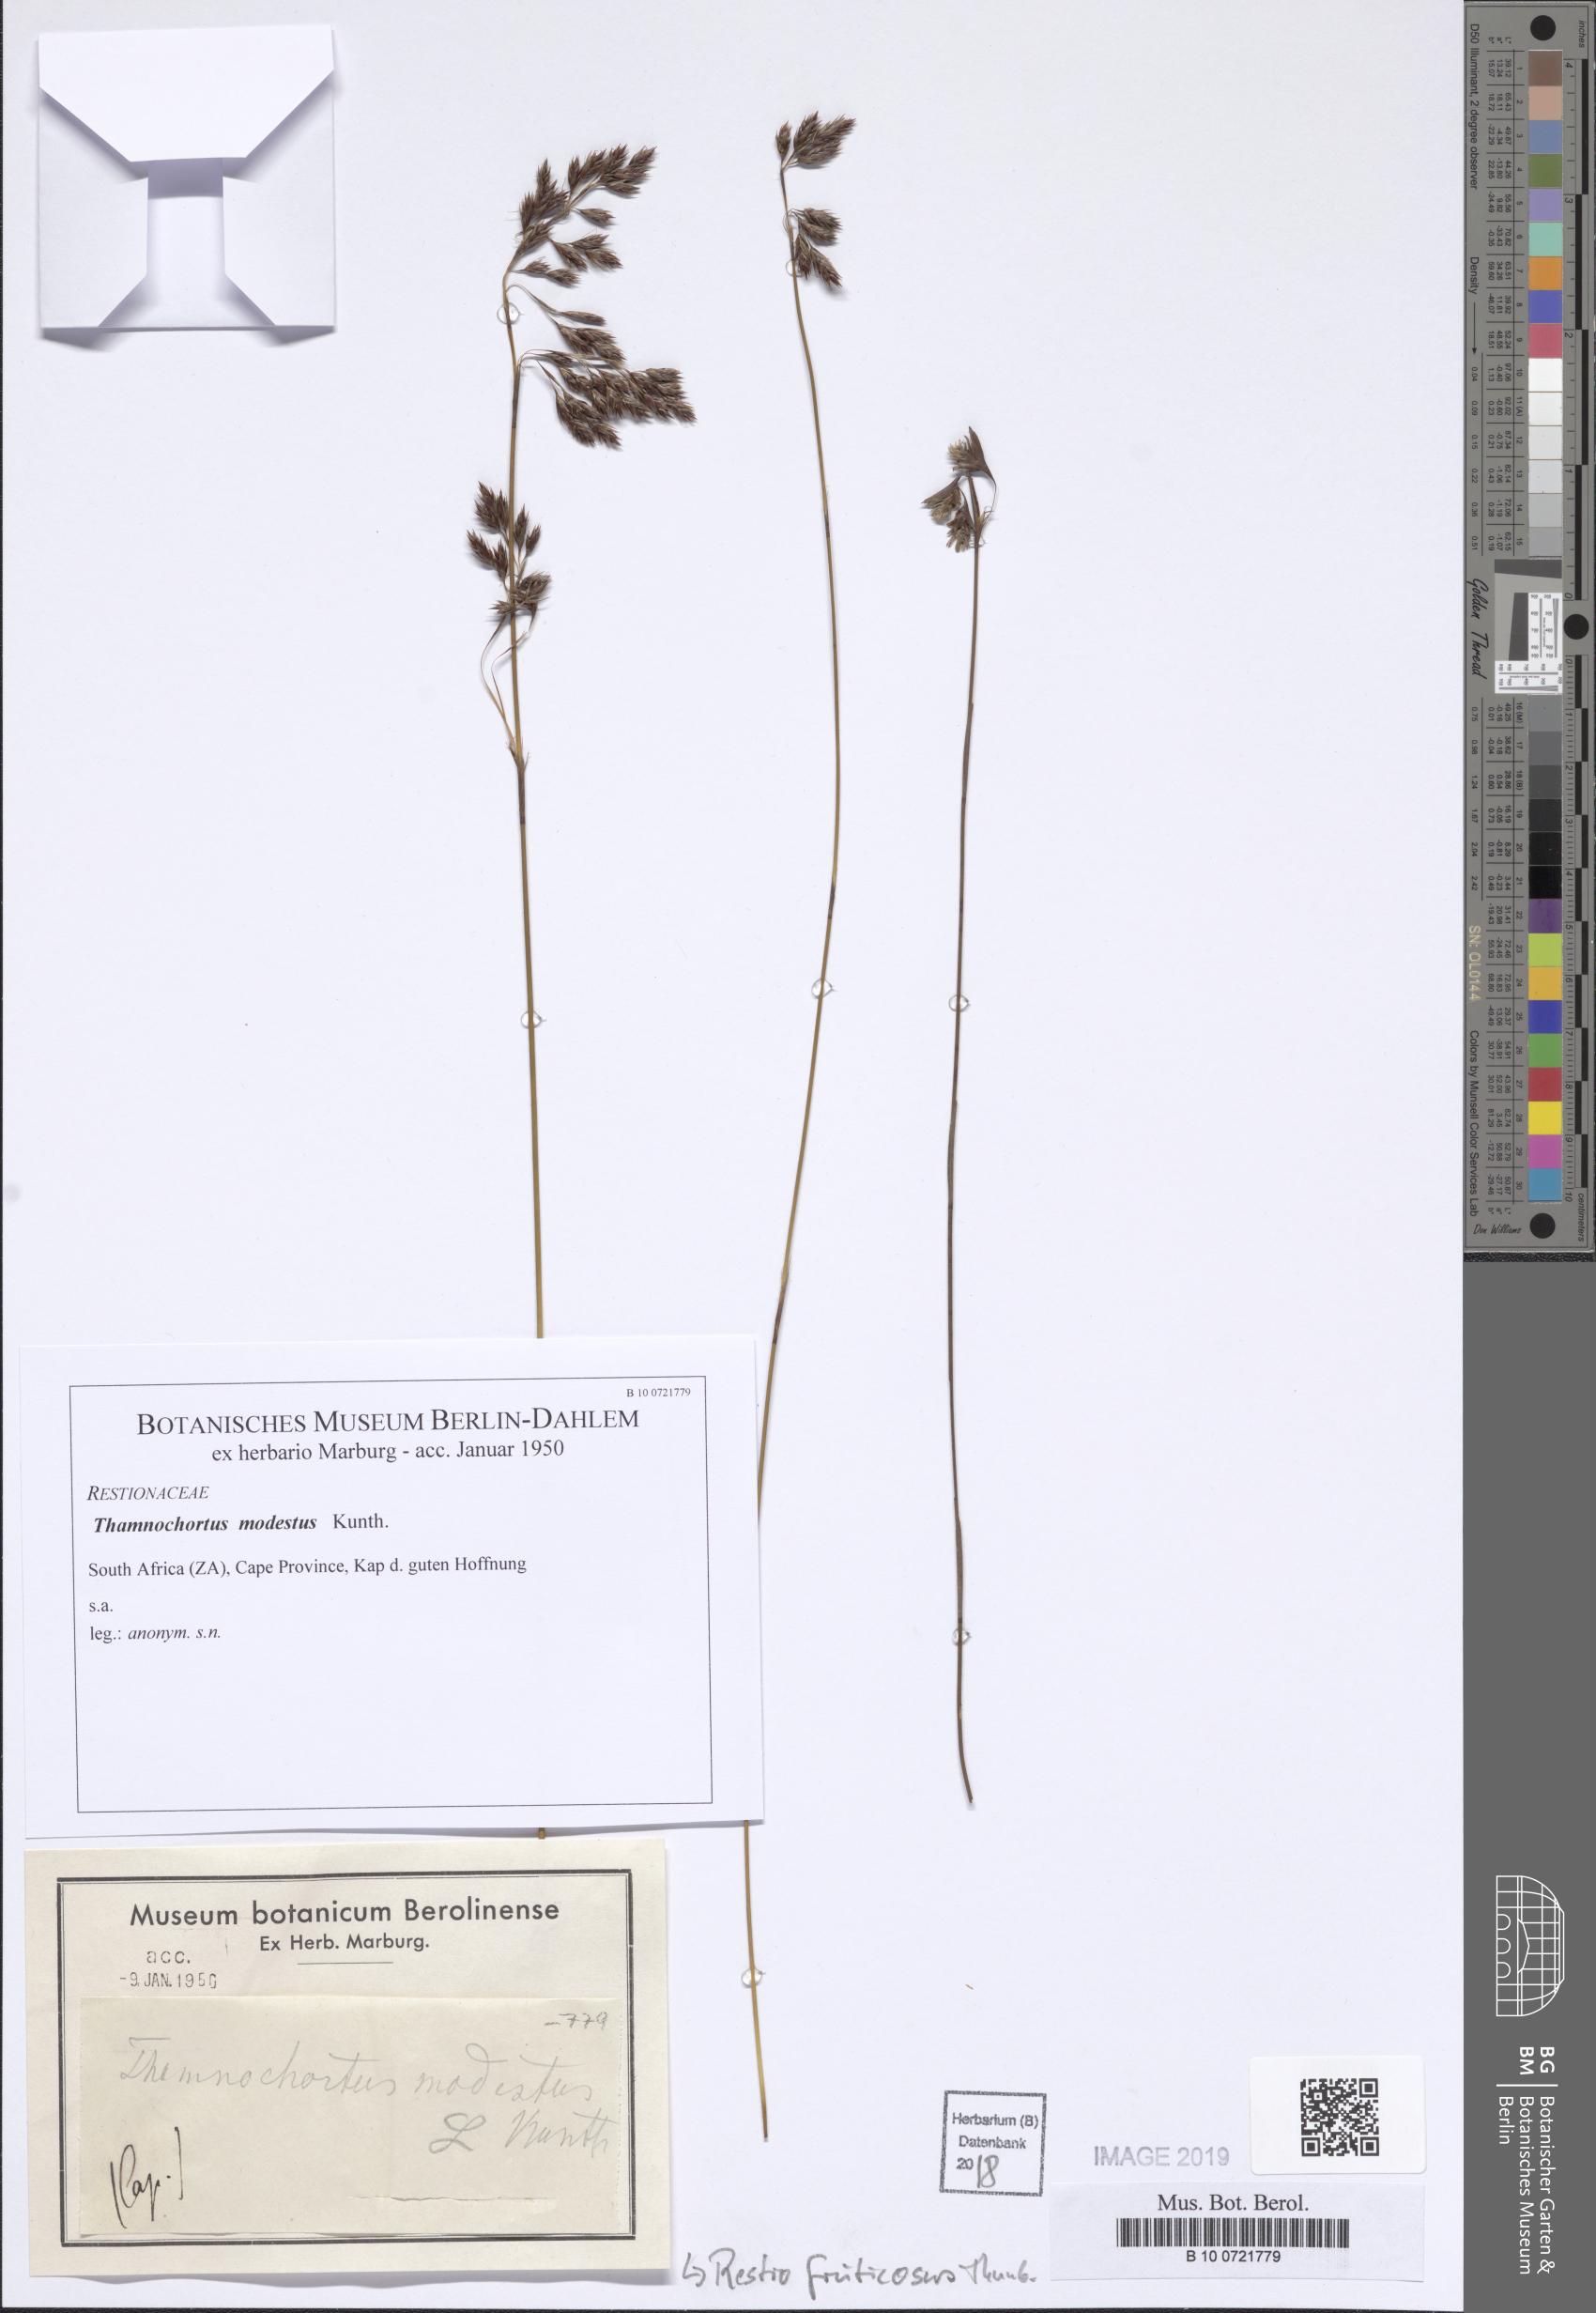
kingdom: Plantae
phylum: Tracheophyta
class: Liliopsida
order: Poales
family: Restionaceae
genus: Rhodocoma
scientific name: Rhodocoma fruticosa
